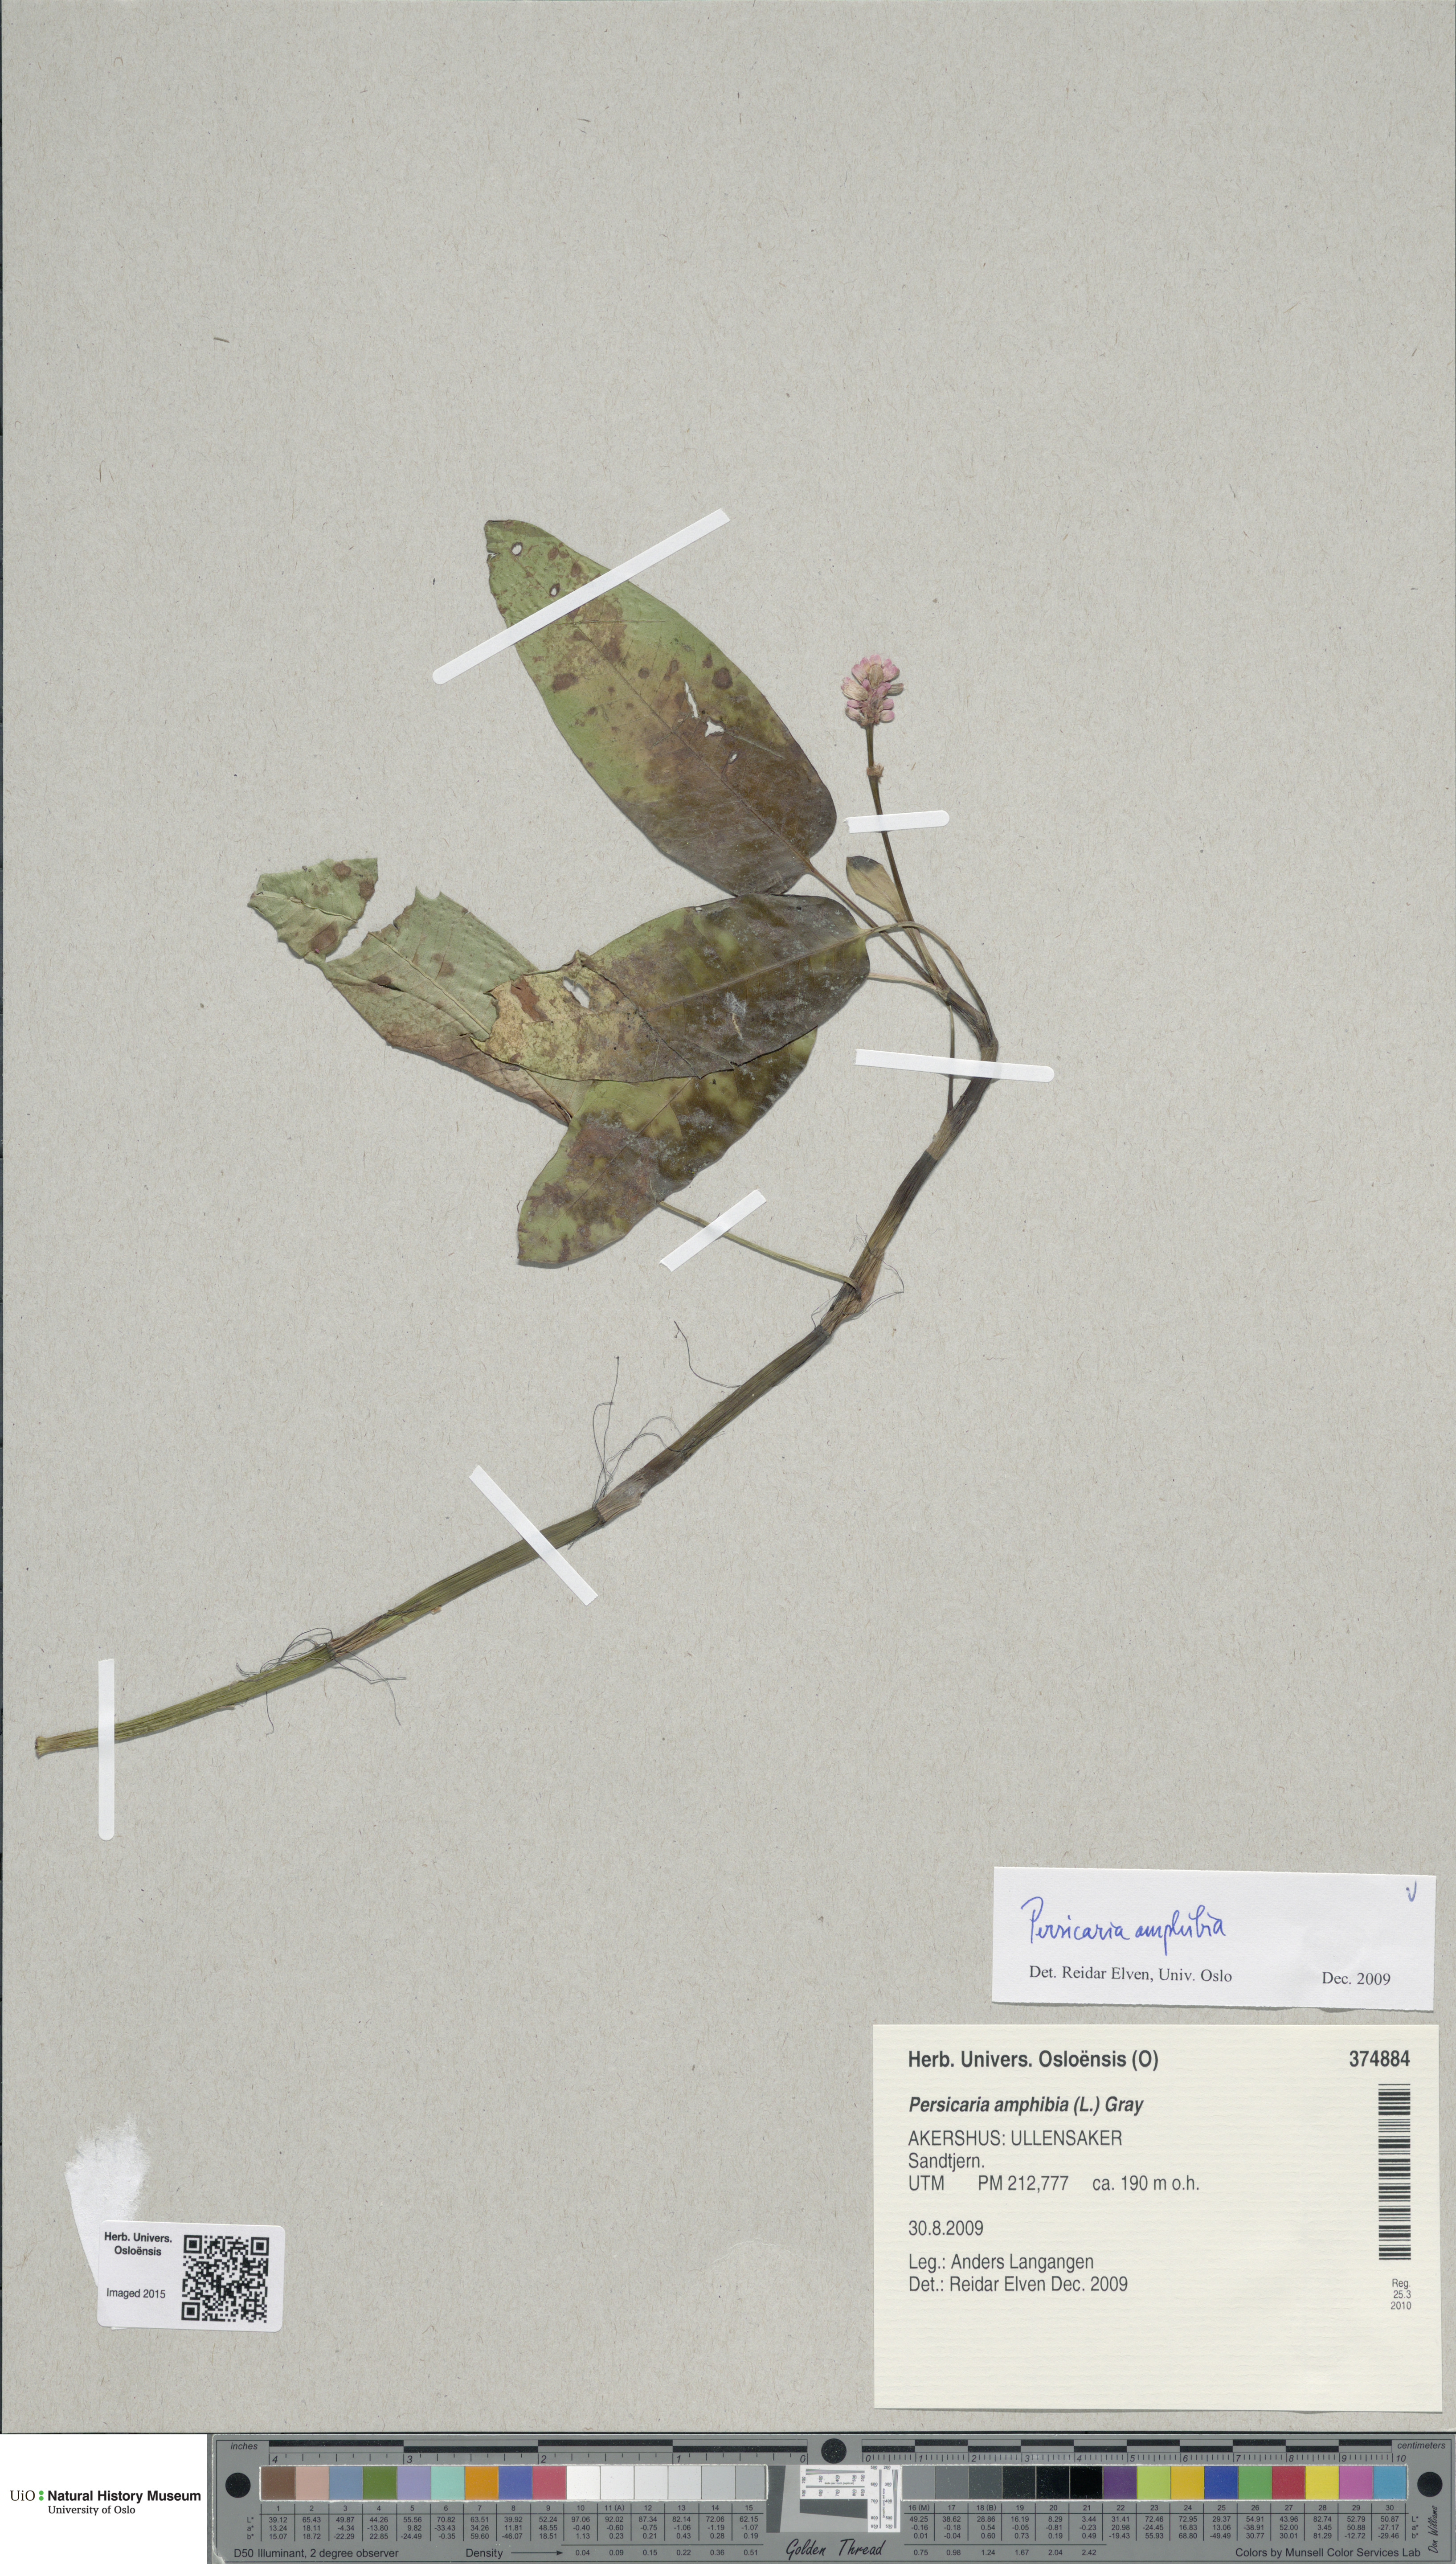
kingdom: Plantae
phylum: Tracheophyta
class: Magnoliopsida
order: Caryophyllales
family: Polygonaceae
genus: Persicaria
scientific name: Persicaria amphibia
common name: Amphibious bistort
